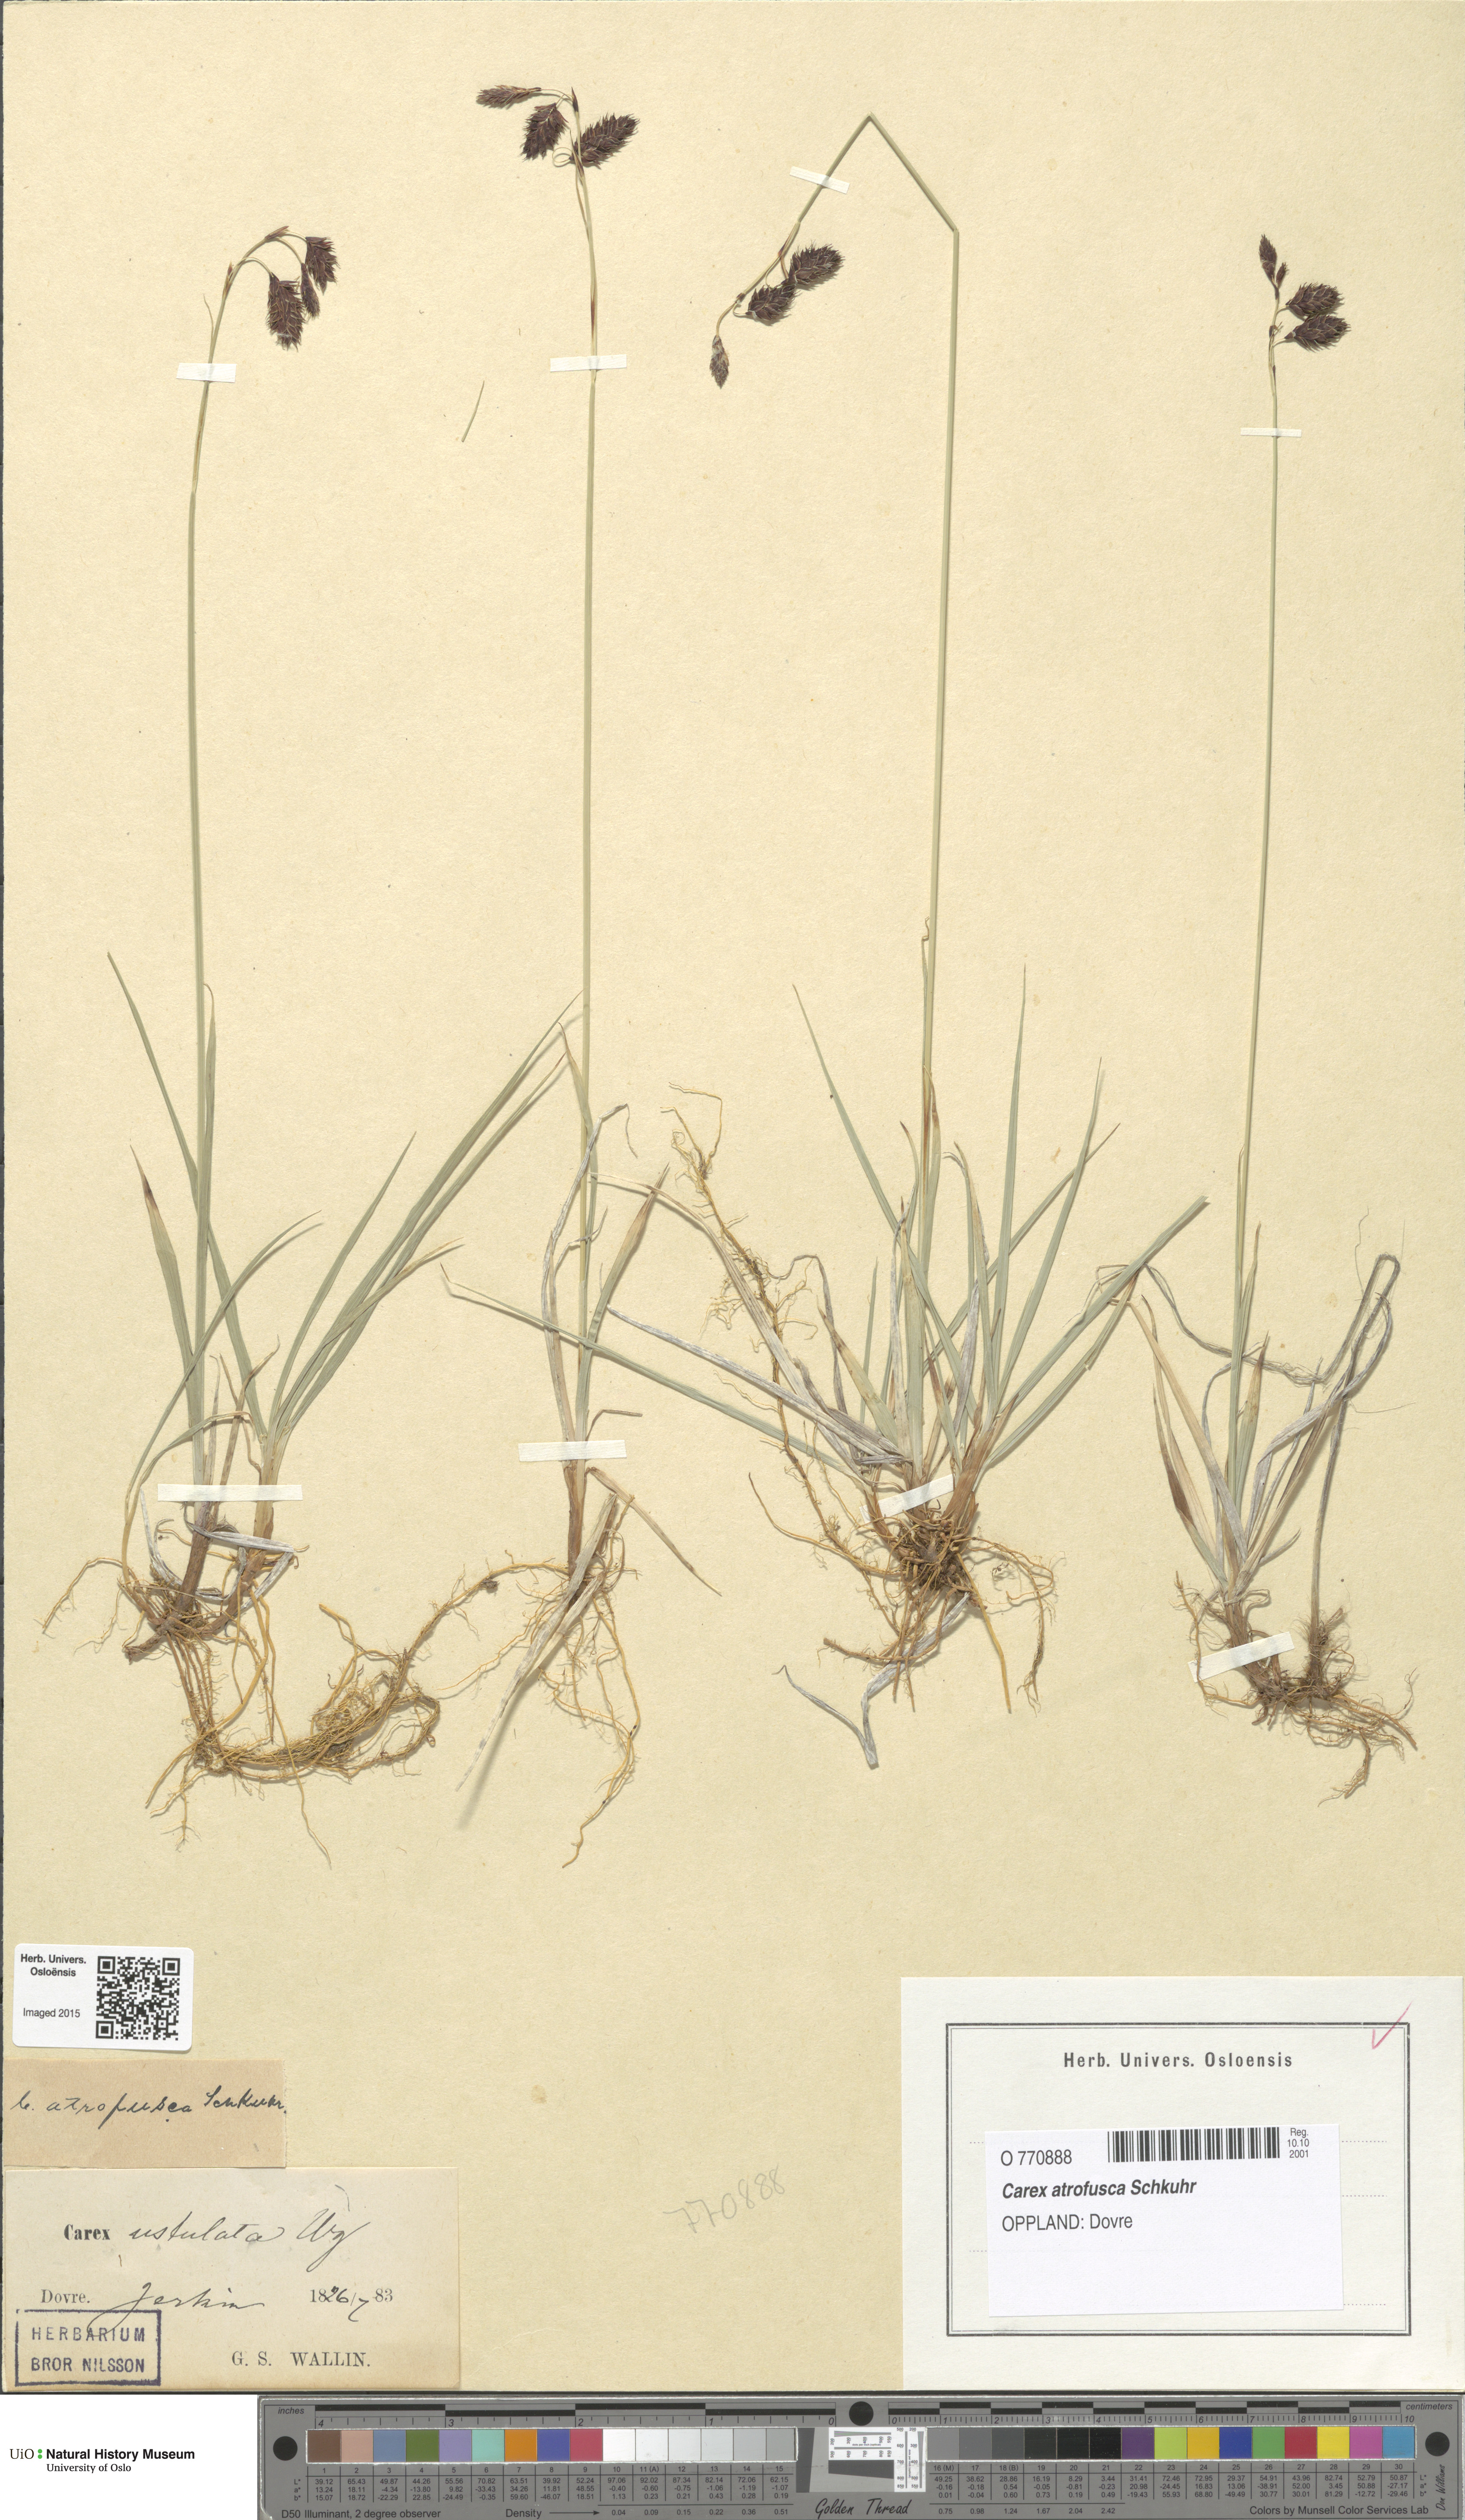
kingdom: Plantae
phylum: Tracheophyta
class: Liliopsida
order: Poales
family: Cyperaceae
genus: Carex
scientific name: Carex atrofusca
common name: Scorched alpine-sedge
